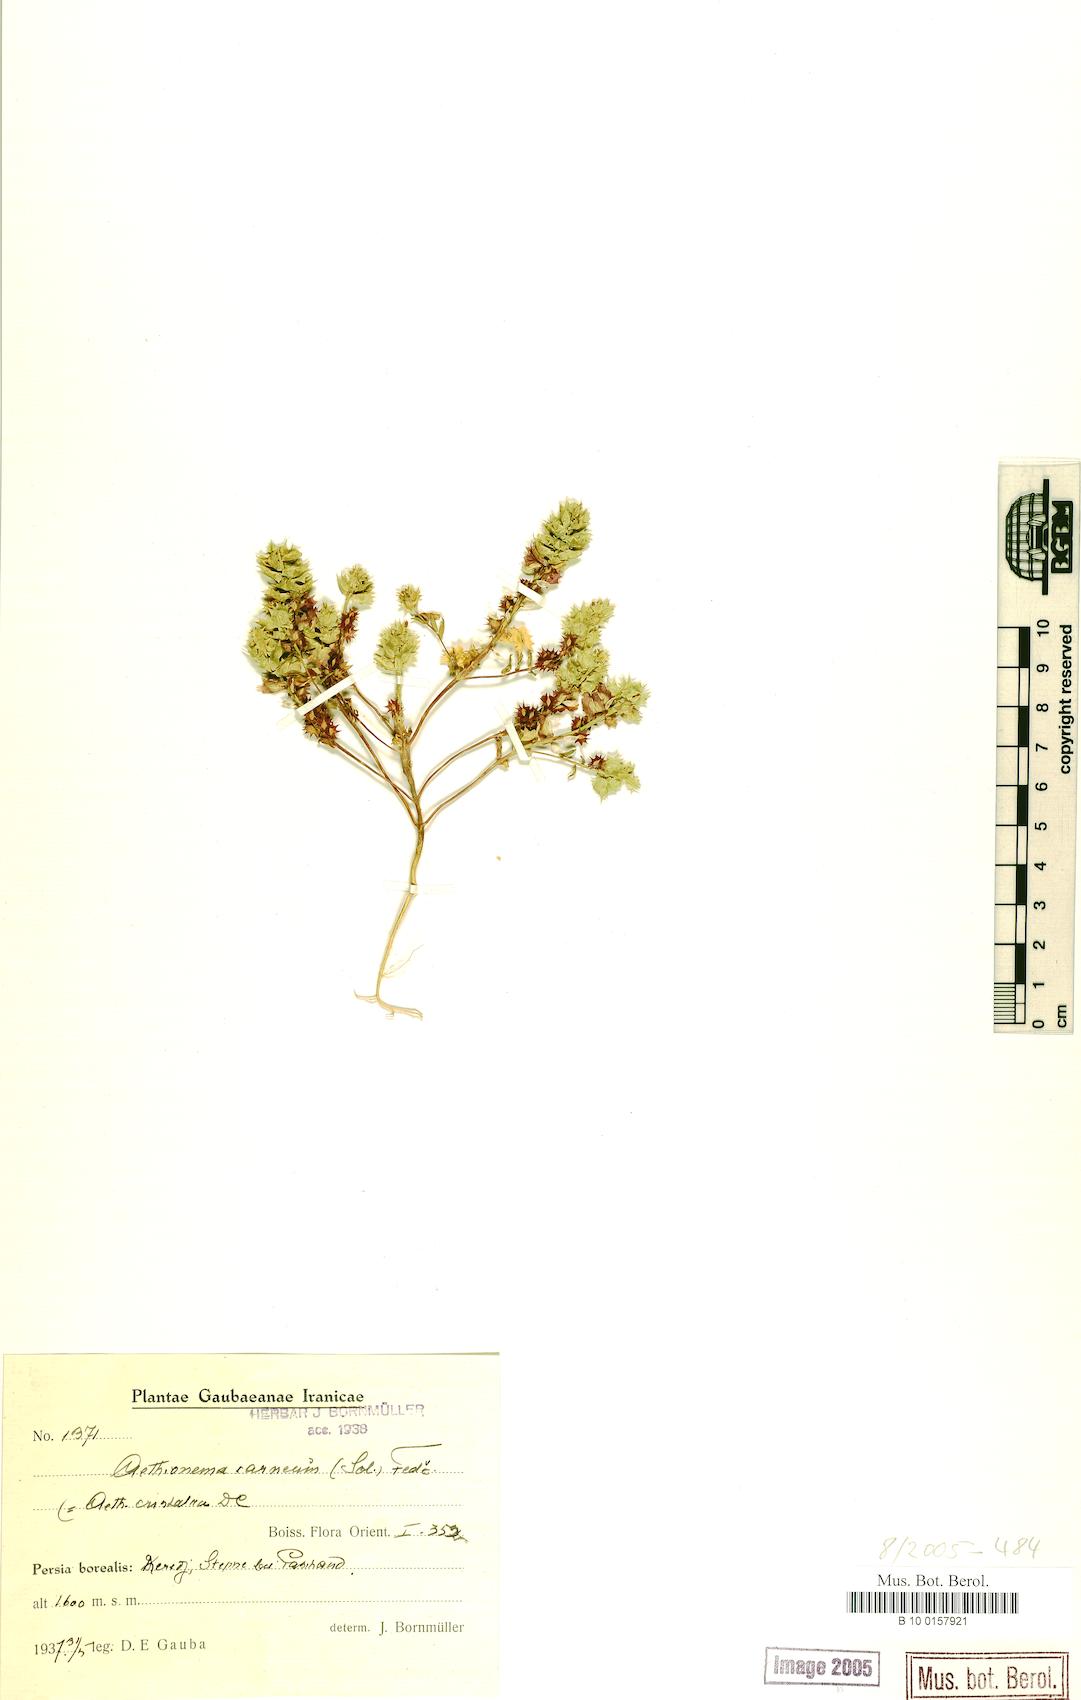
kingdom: Plantae
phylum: Tracheophyta
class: Magnoliopsida
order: Brassicales
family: Brassicaceae
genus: Aethionema
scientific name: Aethionema carneum
